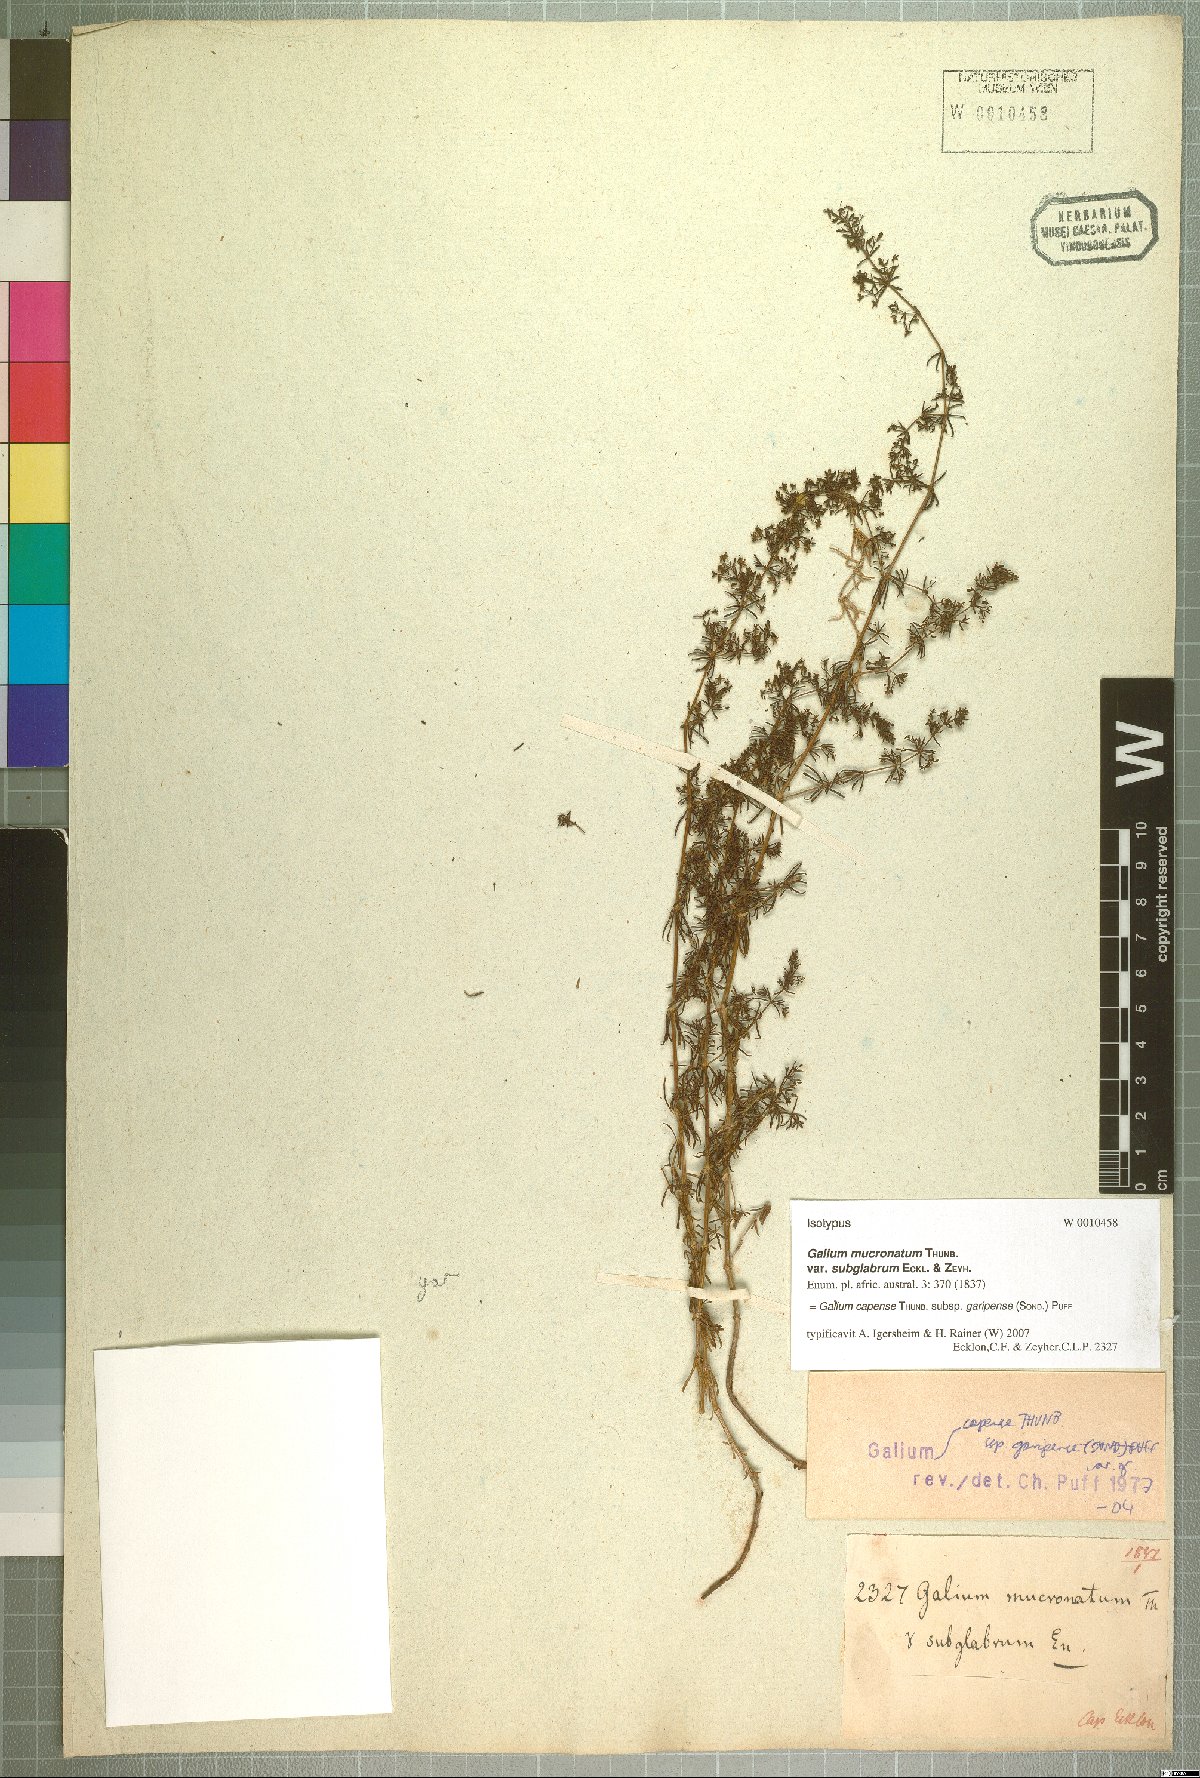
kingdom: Plantae
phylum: Tracheophyta
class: Magnoliopsida
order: Gentianales
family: Rubiaceae
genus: Galium
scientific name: Galium capense
